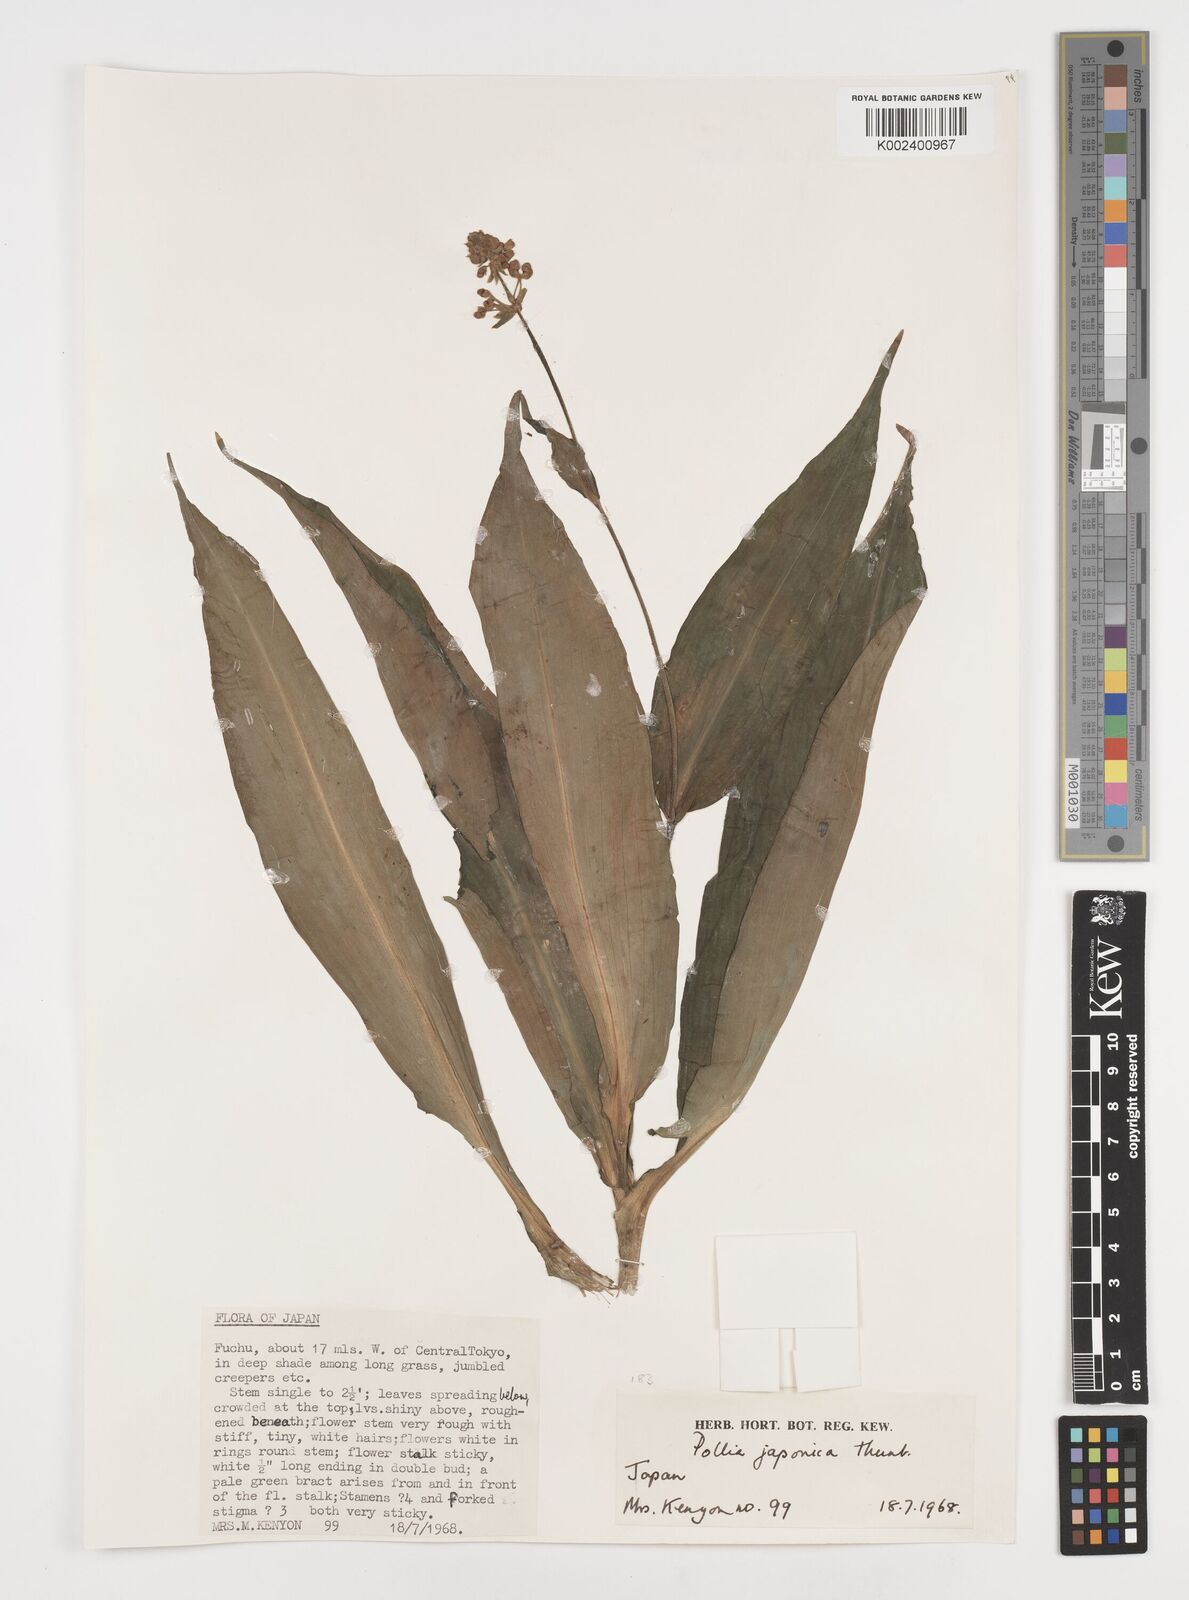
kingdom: Plantae
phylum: Tracheophyta
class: Liliopsida
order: Commelinales
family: Commelinaceae
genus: Pollia
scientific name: Pollia japonica
